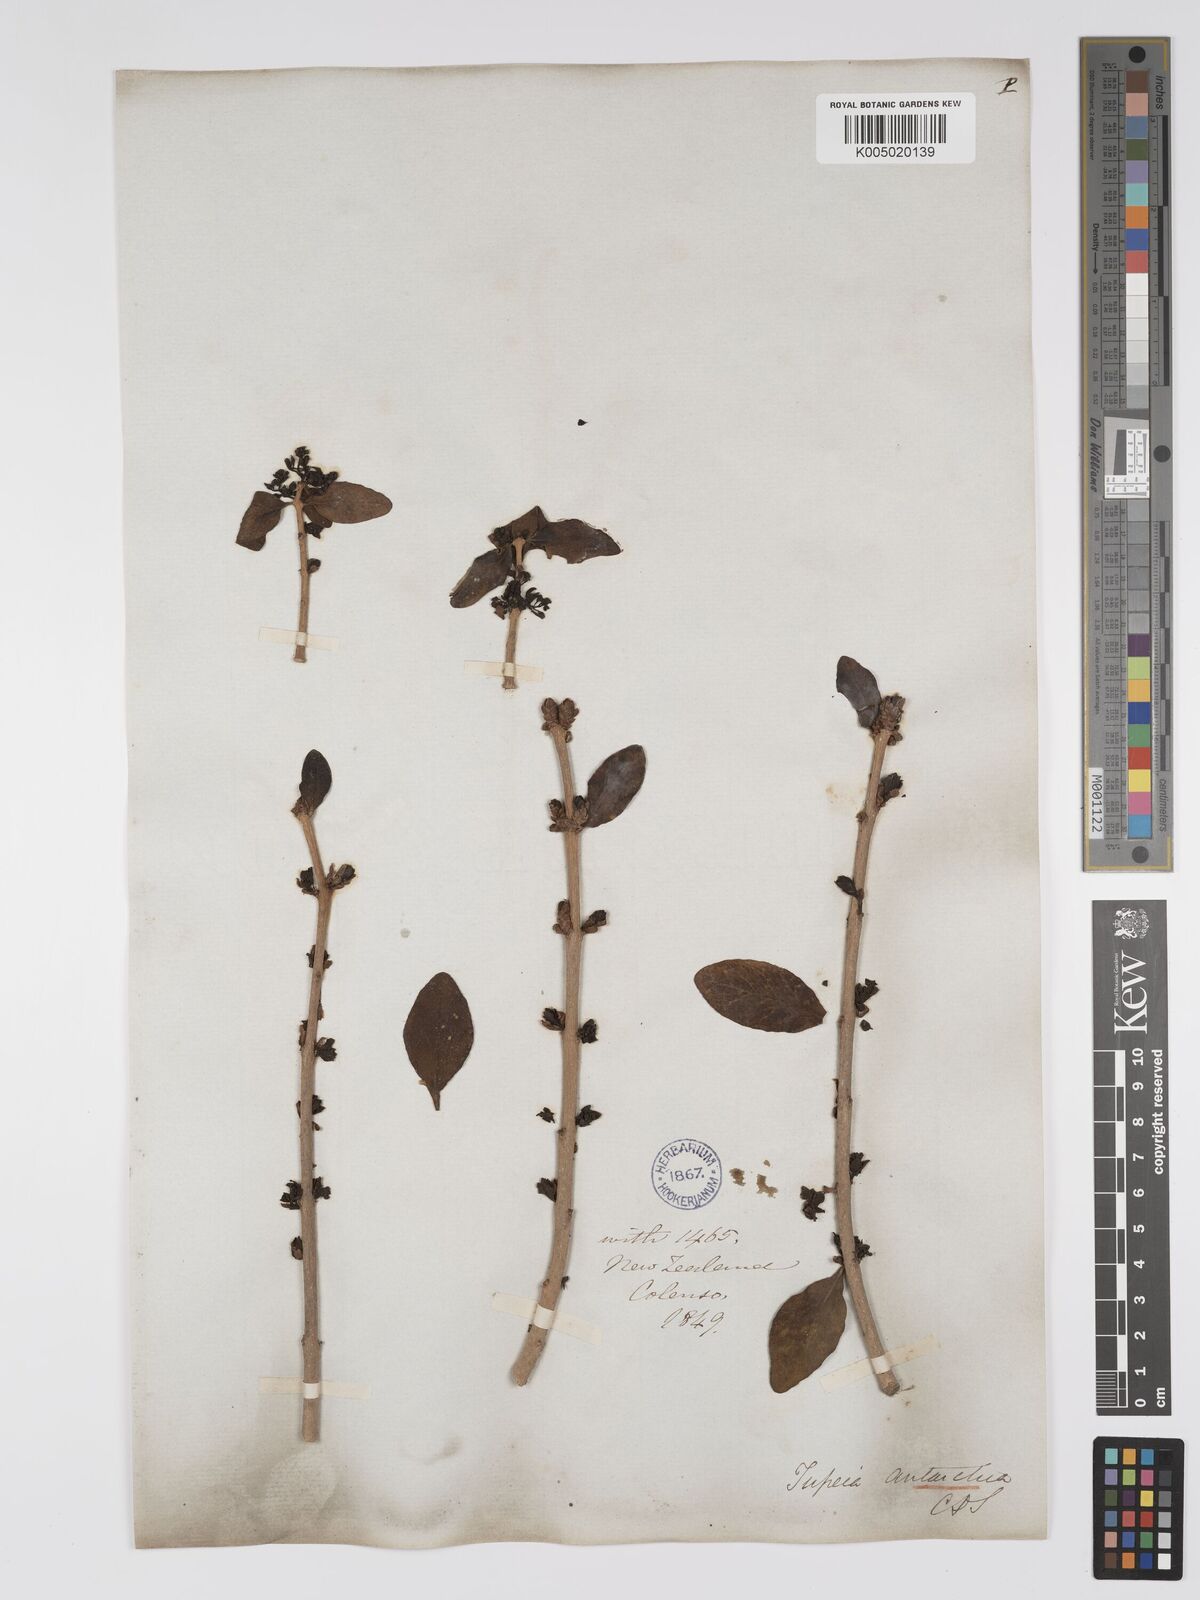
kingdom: Plantae
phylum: Tracheophyta
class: Magnoliopsida
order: Santalales
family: Loranthaceae
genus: Tupeia
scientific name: Tupeia antarctica
